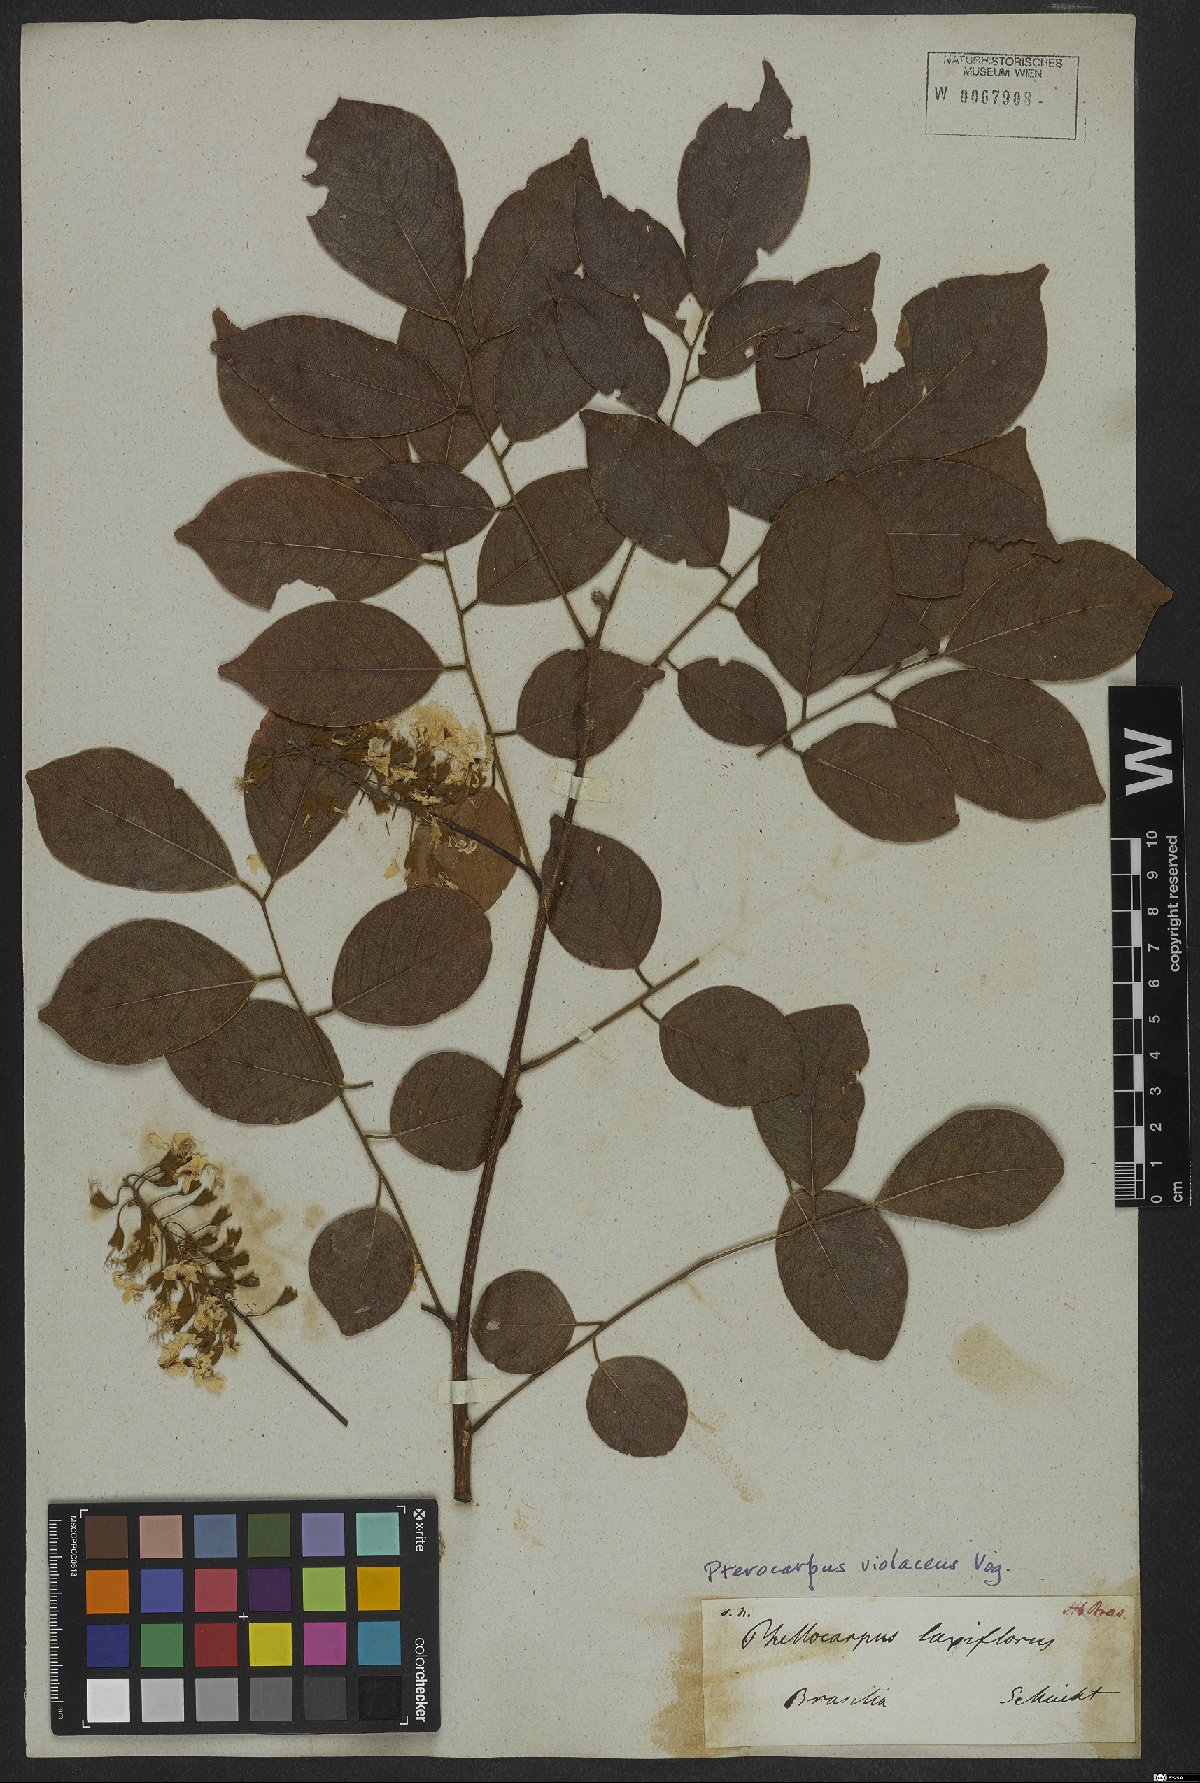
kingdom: Plantae
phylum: Tracheophyta
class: Magnoliopsida
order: Fabales
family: Fabaceae
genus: Pterocarpus
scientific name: Pterocarpus rohrii
